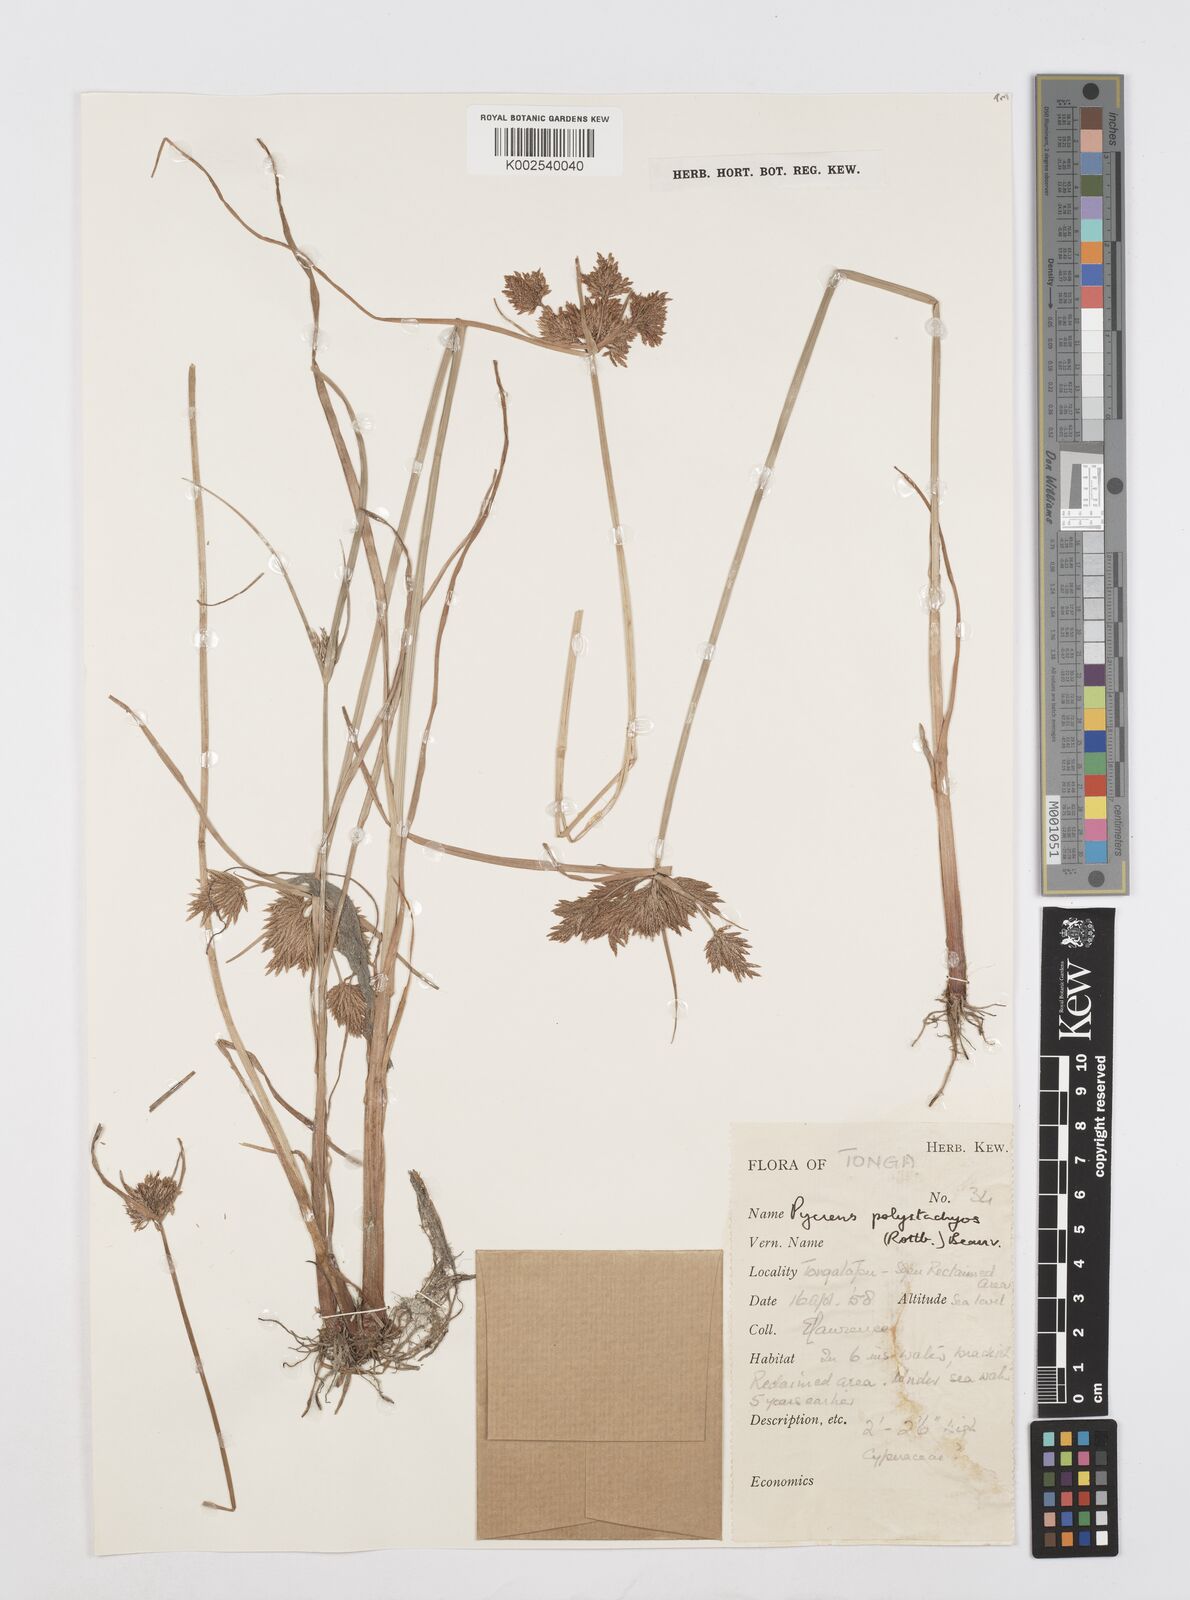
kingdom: Plantae
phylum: Tracheophyta
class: Liliopsida
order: Poales
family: Cyperaceae
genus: Cyperus
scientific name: Cyperus polystachyos
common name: Bunchy flat sedge
